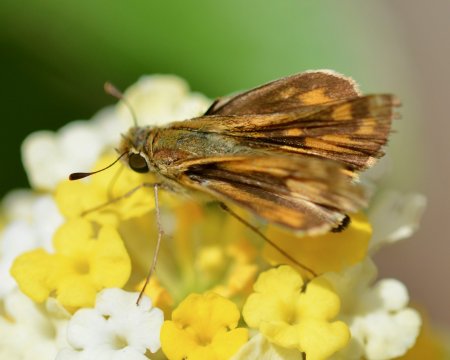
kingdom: Animalia
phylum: Arthropoda
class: Insecta
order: Lepidoptera
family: Hesperiidae
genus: Hylephila
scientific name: Hylephila phyleus
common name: Fiery Skipper
